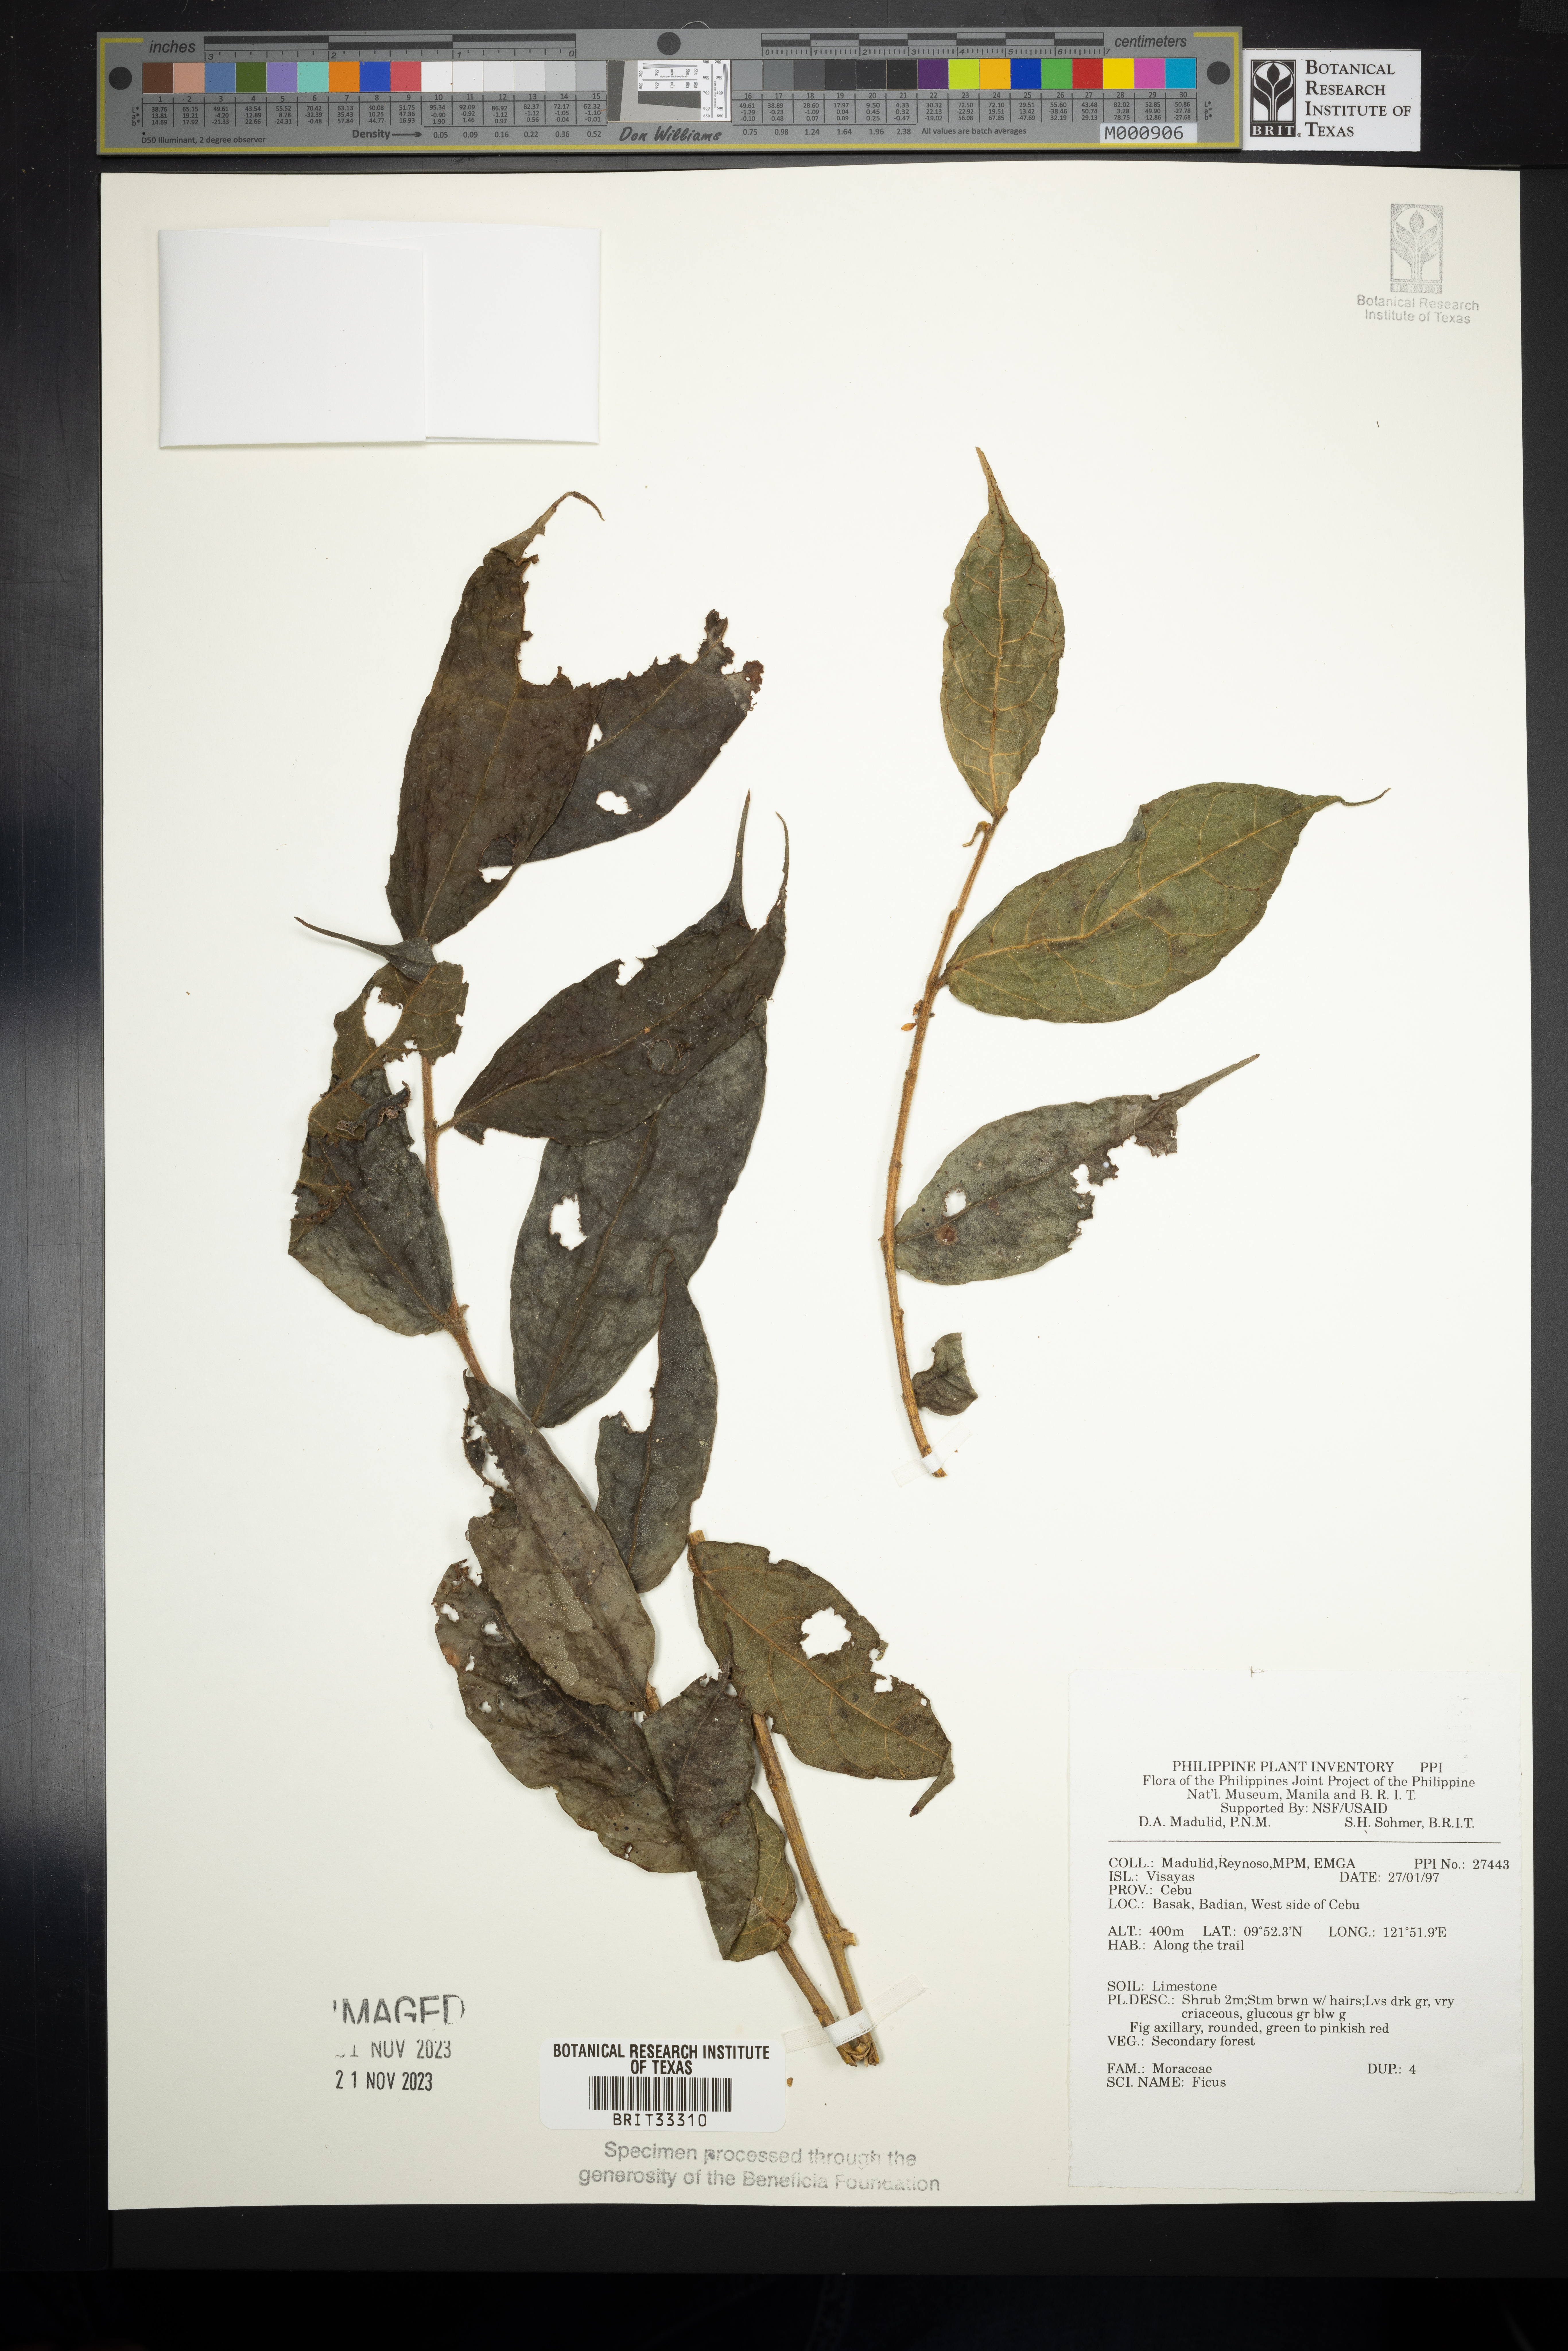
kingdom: Plantae
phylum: Tracheophyta
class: Magnoliopsida
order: Rosales
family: Moraceae
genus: Ficus
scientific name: Ficus
